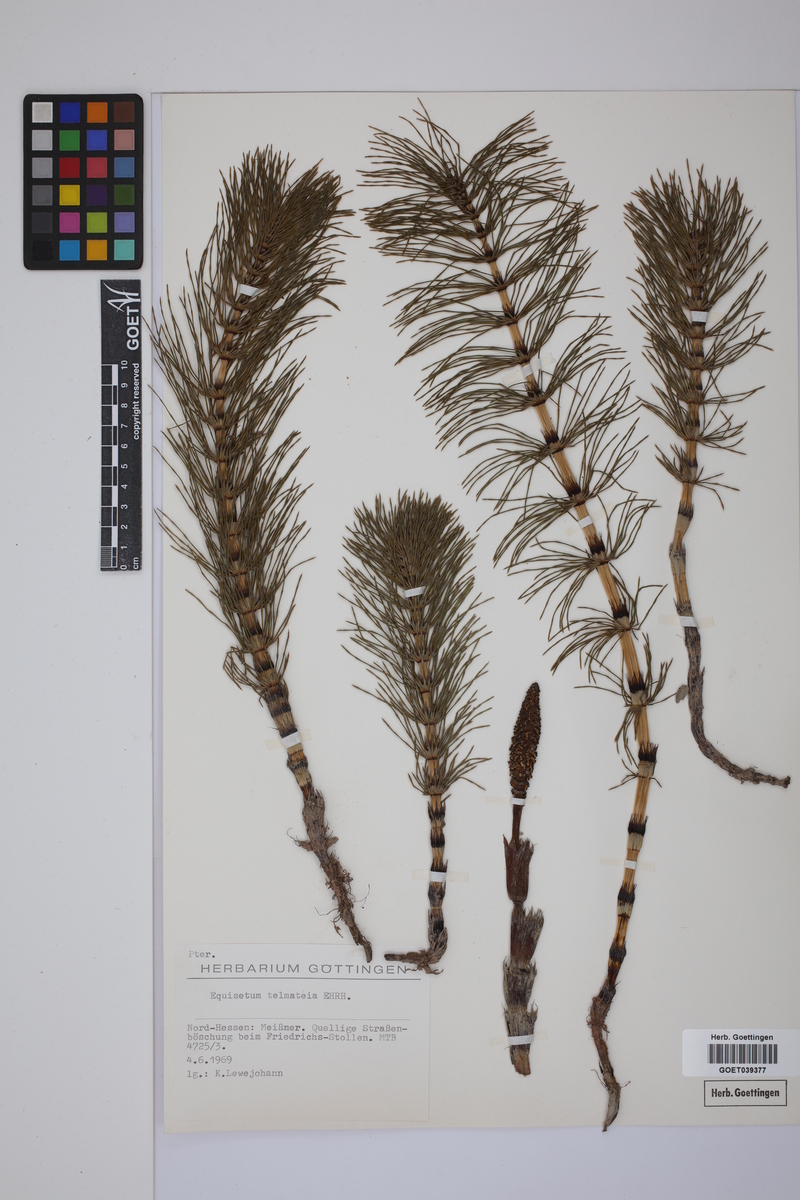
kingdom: Plantae
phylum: Tracheophyta
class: Polypodiopsida
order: Equisetales
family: Equisetaceae
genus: Equisetum
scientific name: Equisetum telmateia
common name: Great horsetail
